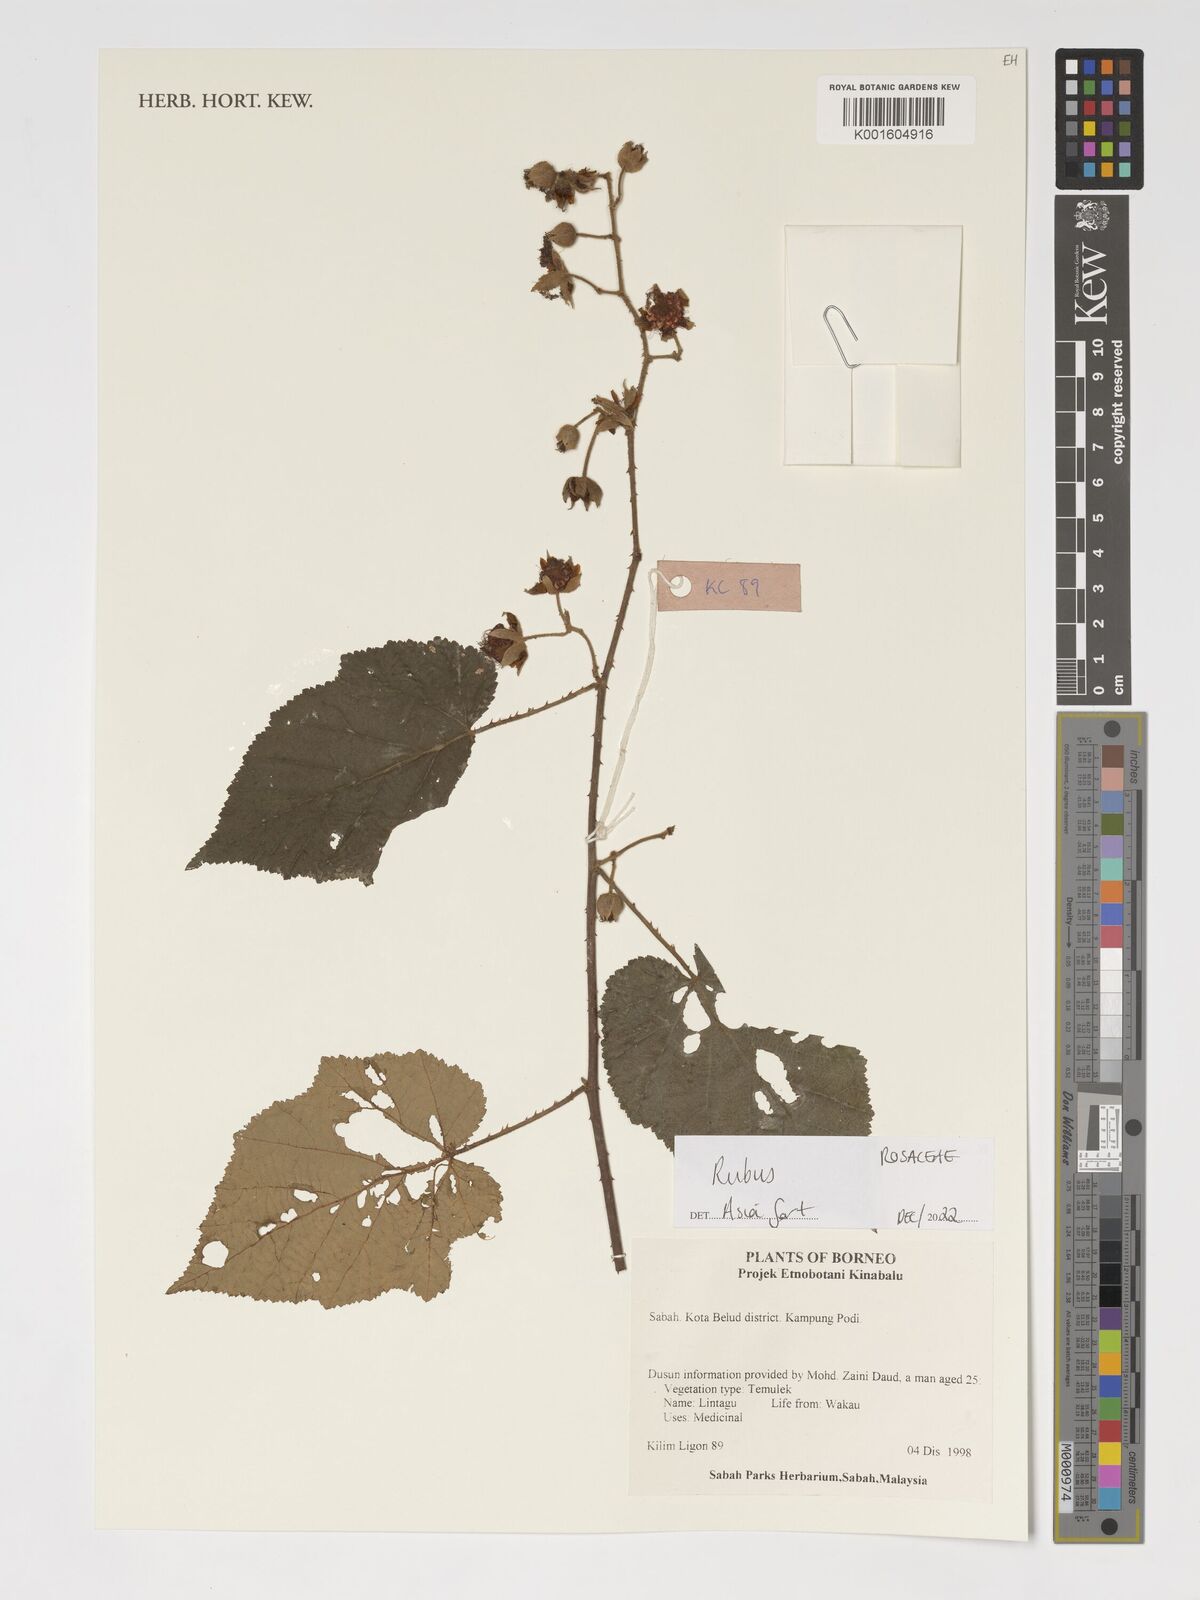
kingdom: Plantae
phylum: Tracheophyta
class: Magnoliopsida
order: Rosales
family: Rosaceae
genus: Rubus
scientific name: Rubus
